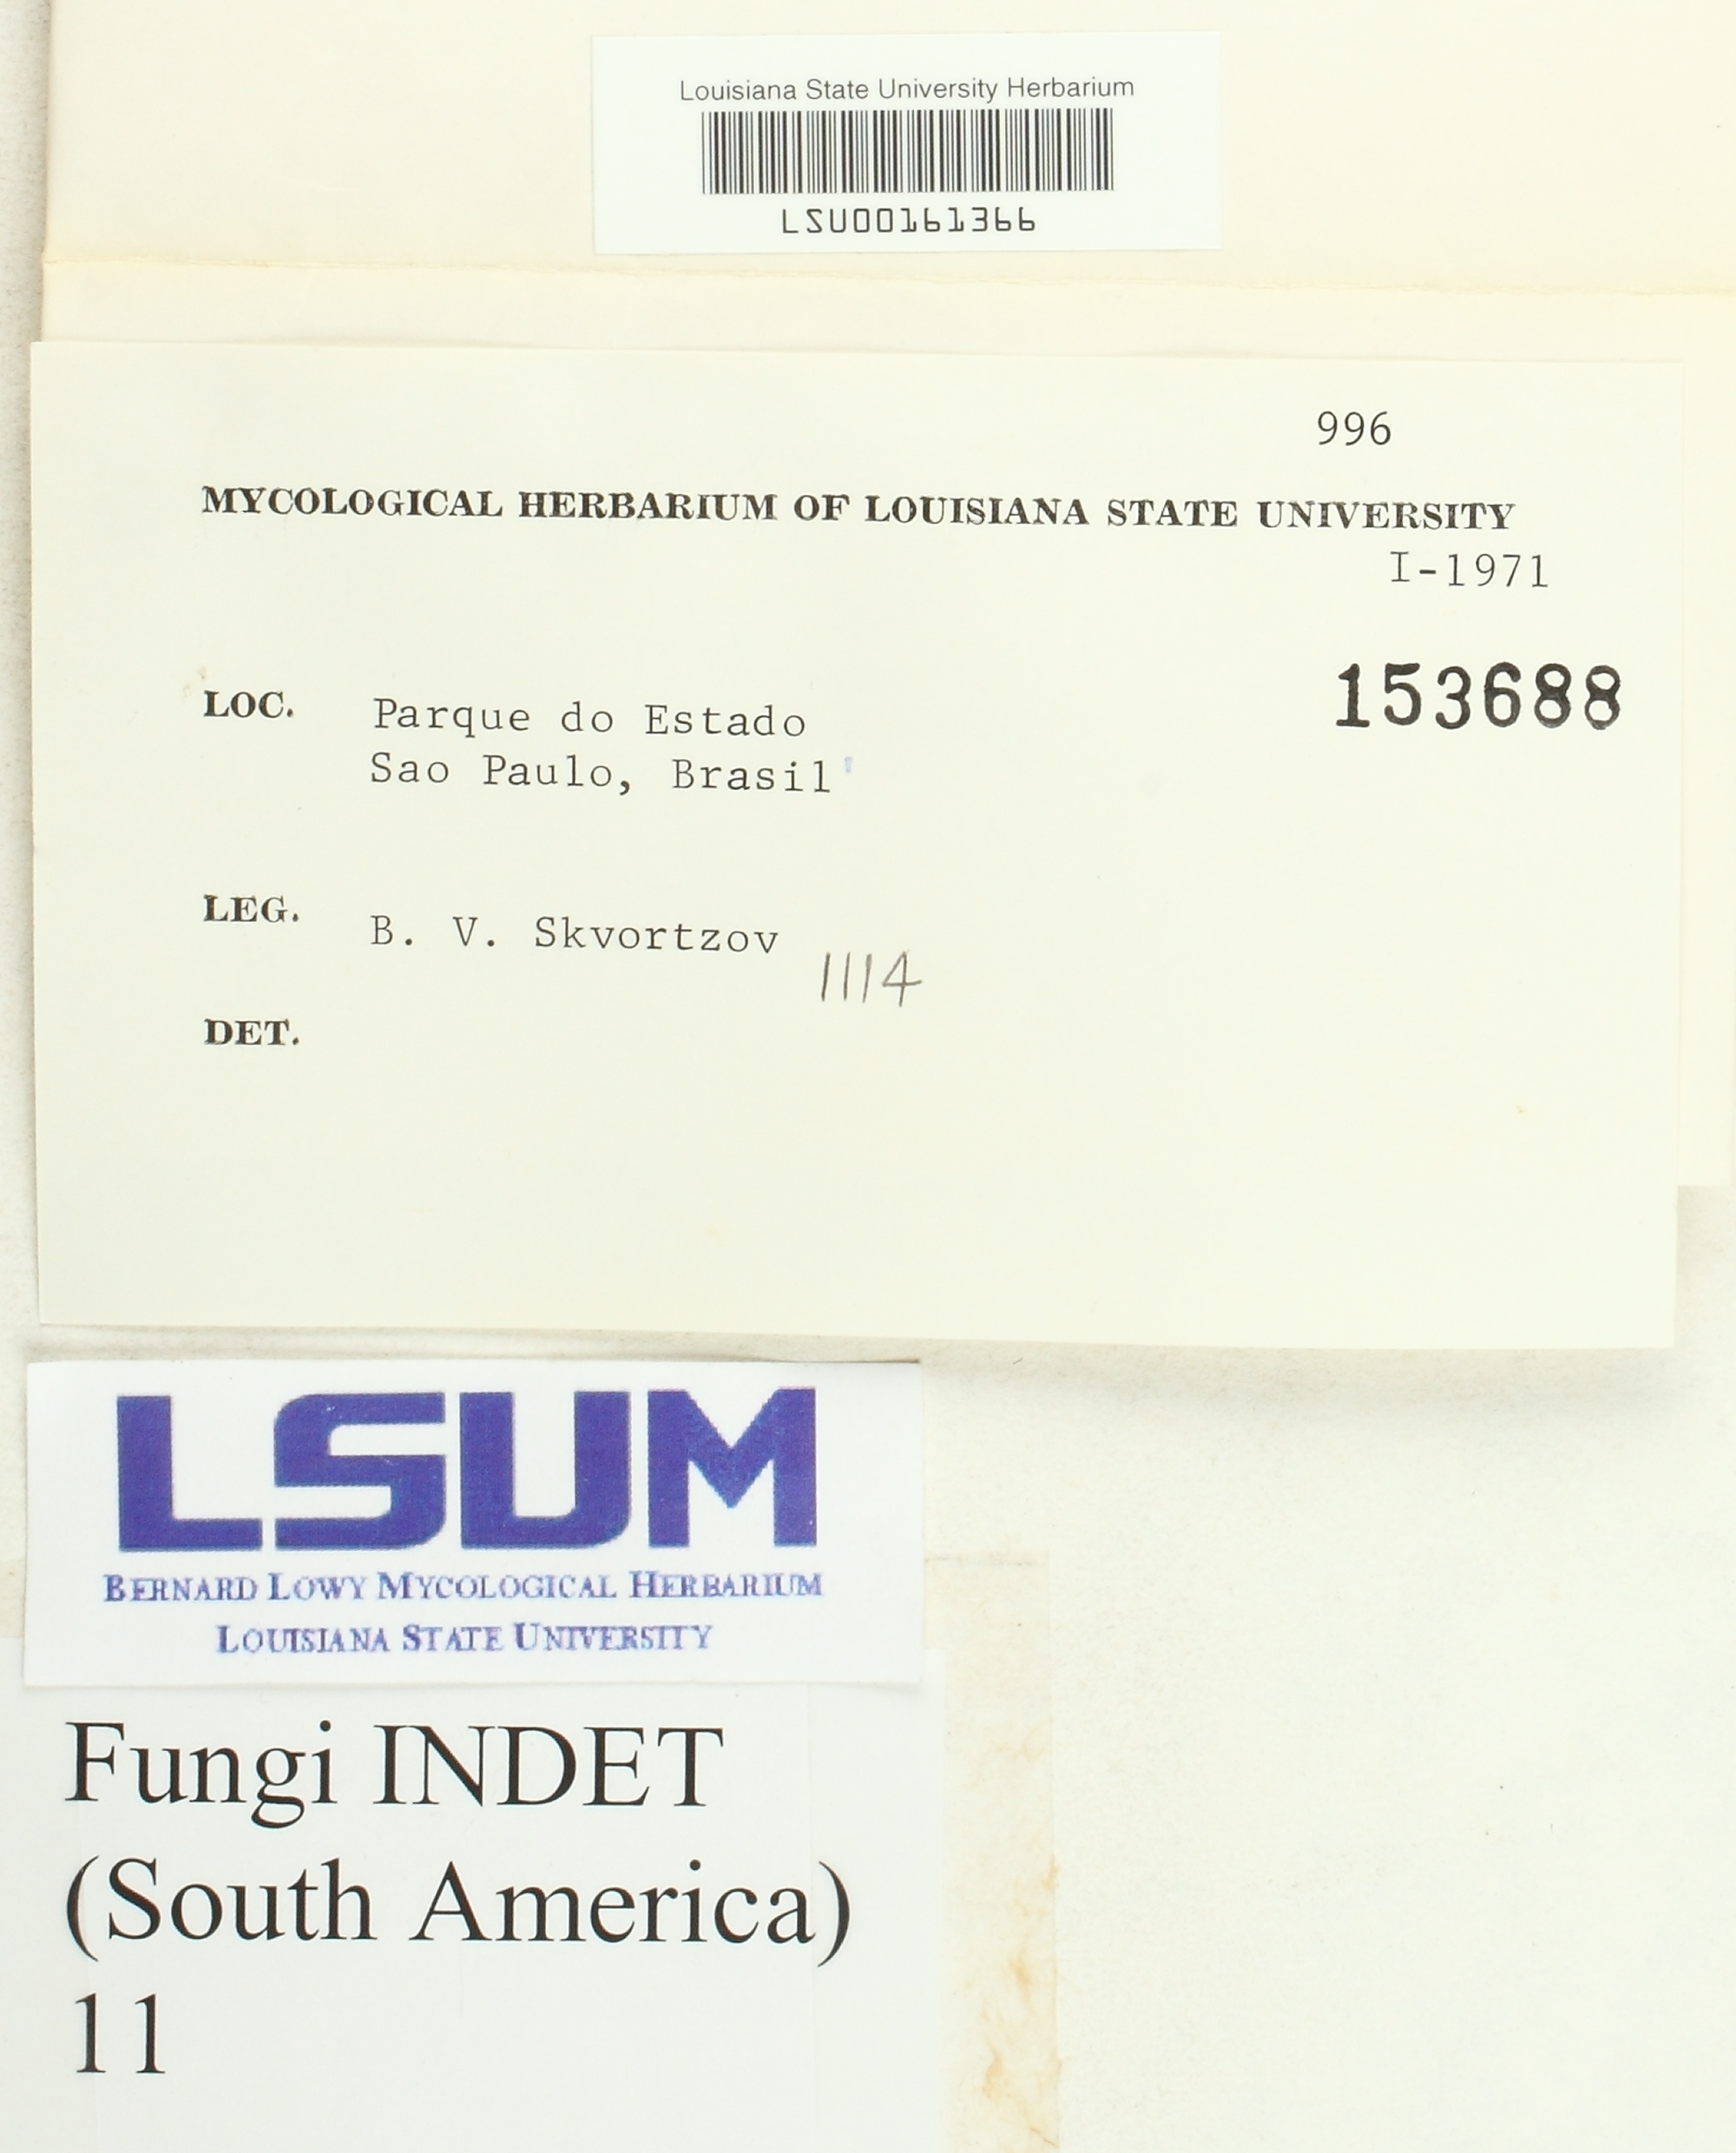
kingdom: Fungi
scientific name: Fungi
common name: Fungi
